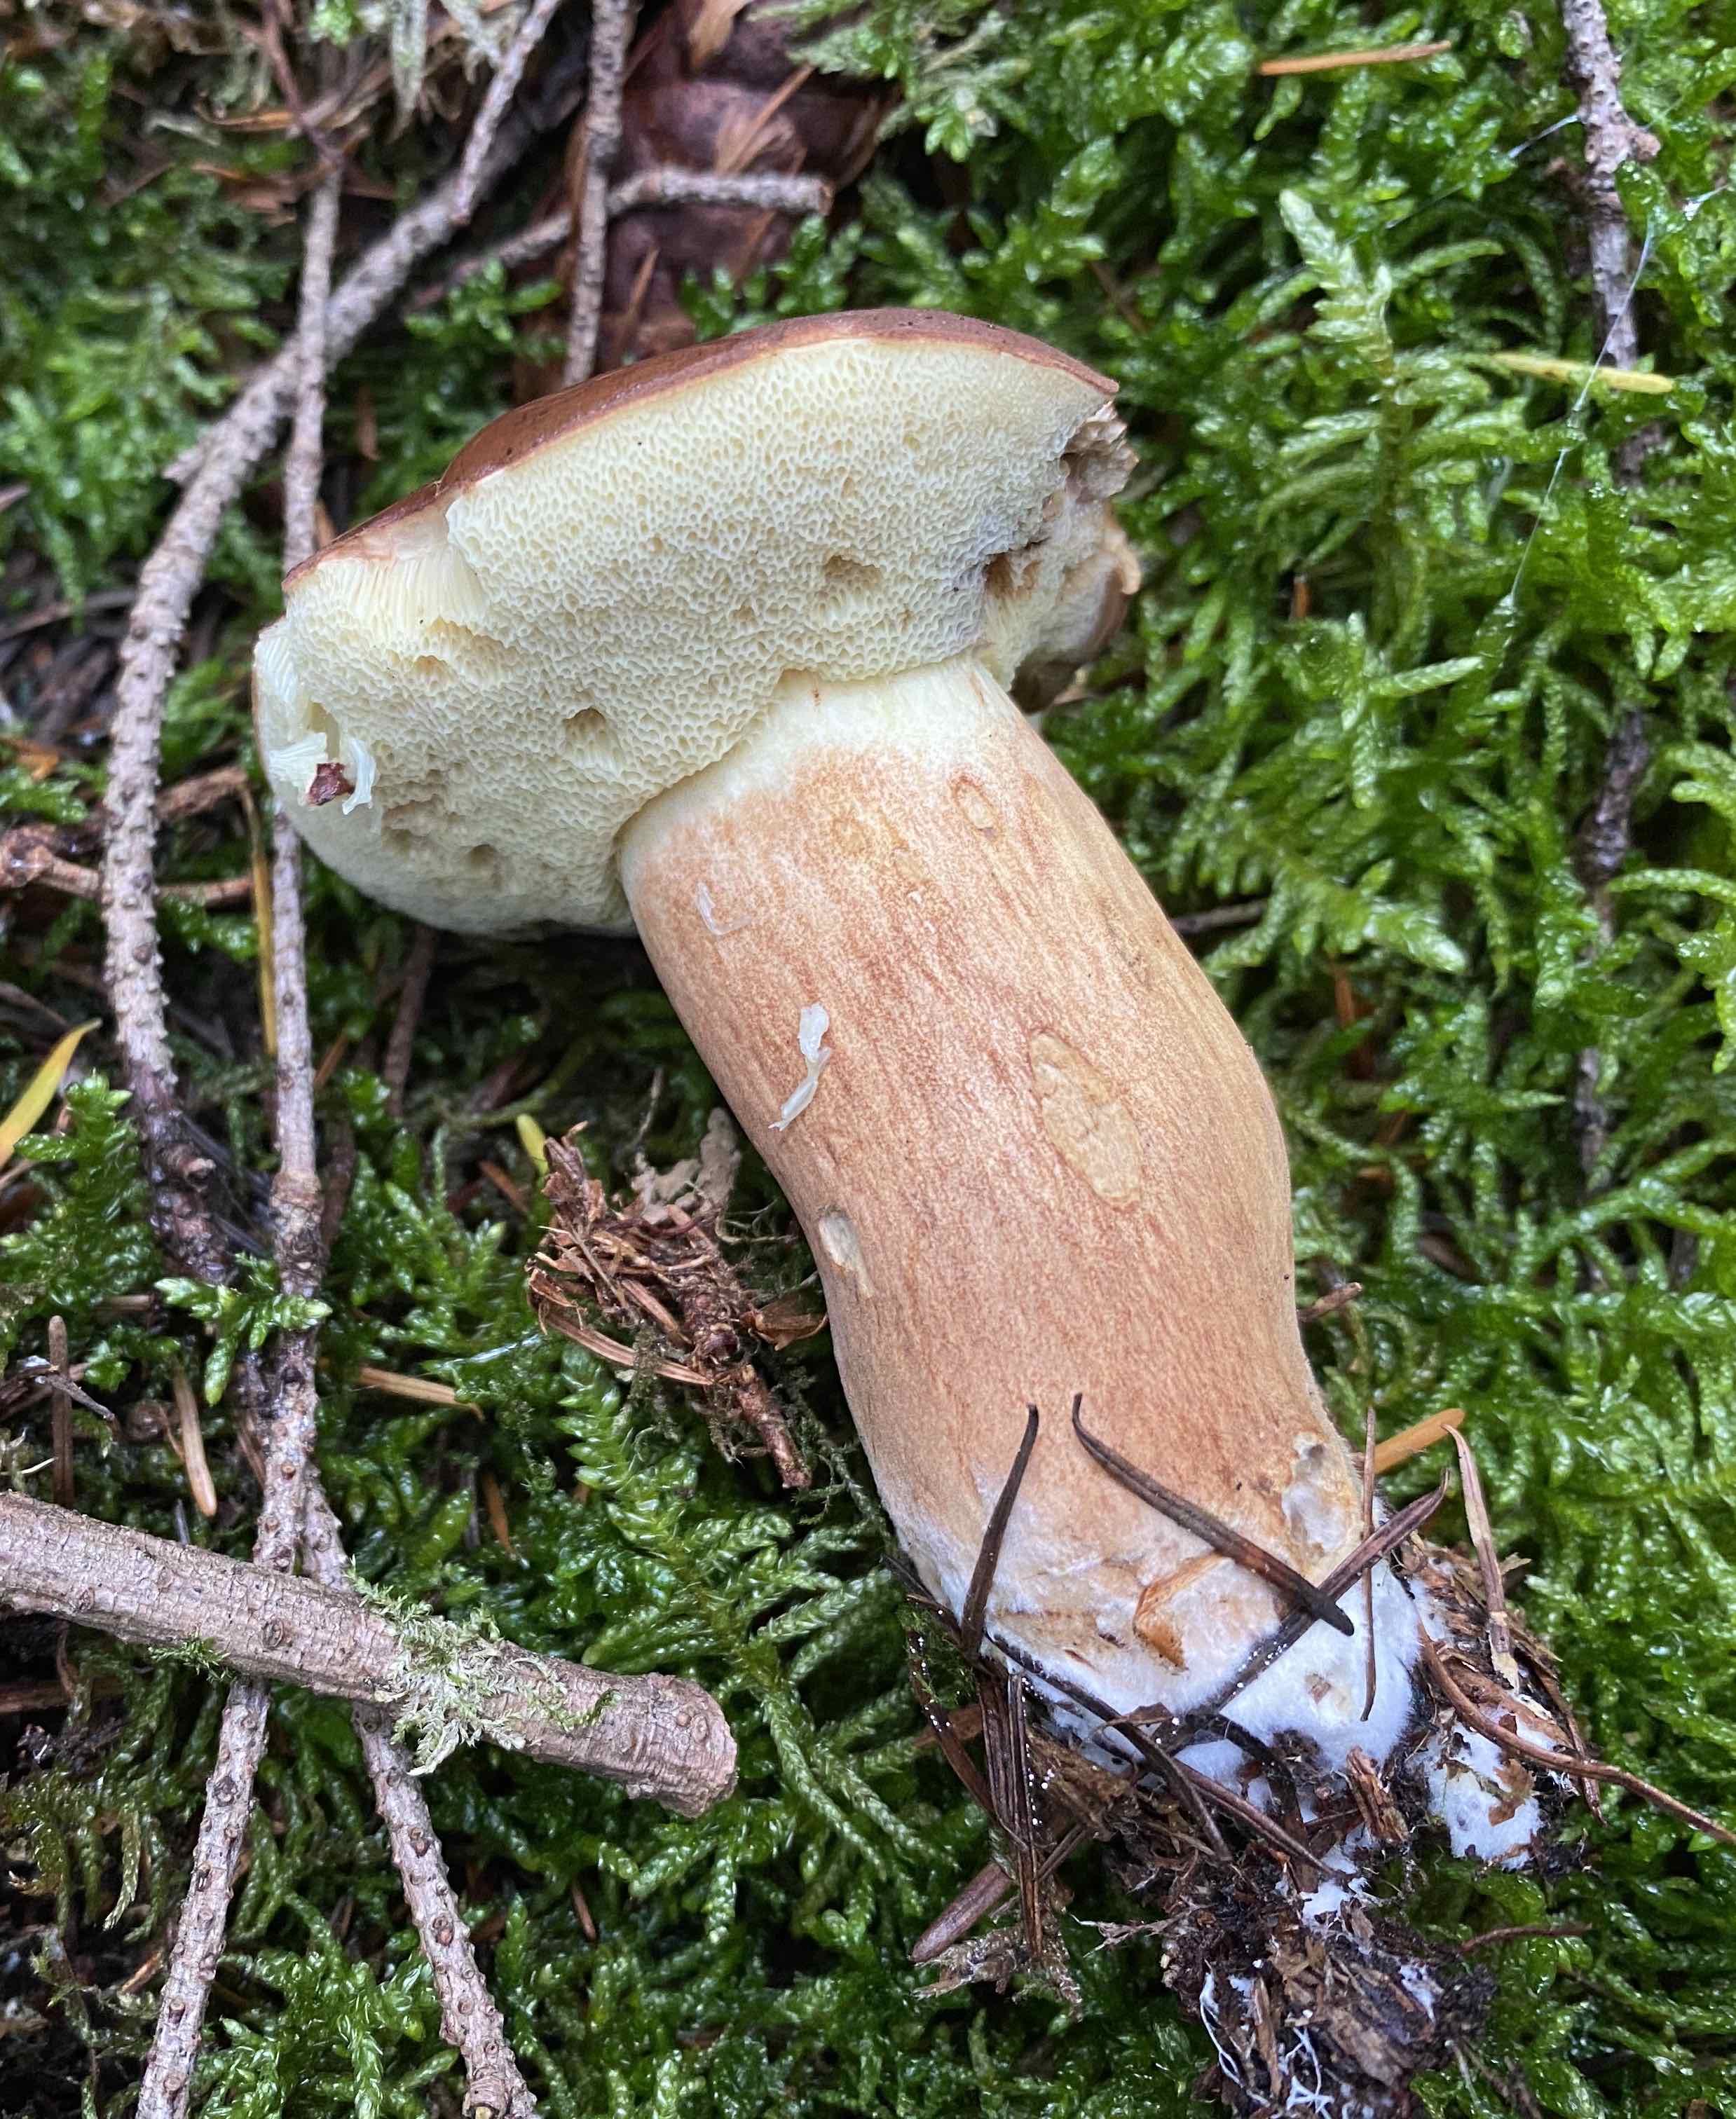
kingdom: Fungi
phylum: Basidiomycota
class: Agaricomycetes
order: Boletales
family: Boletaceae
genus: Imleria
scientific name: Imleria badia
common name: brunstokket rørhat
